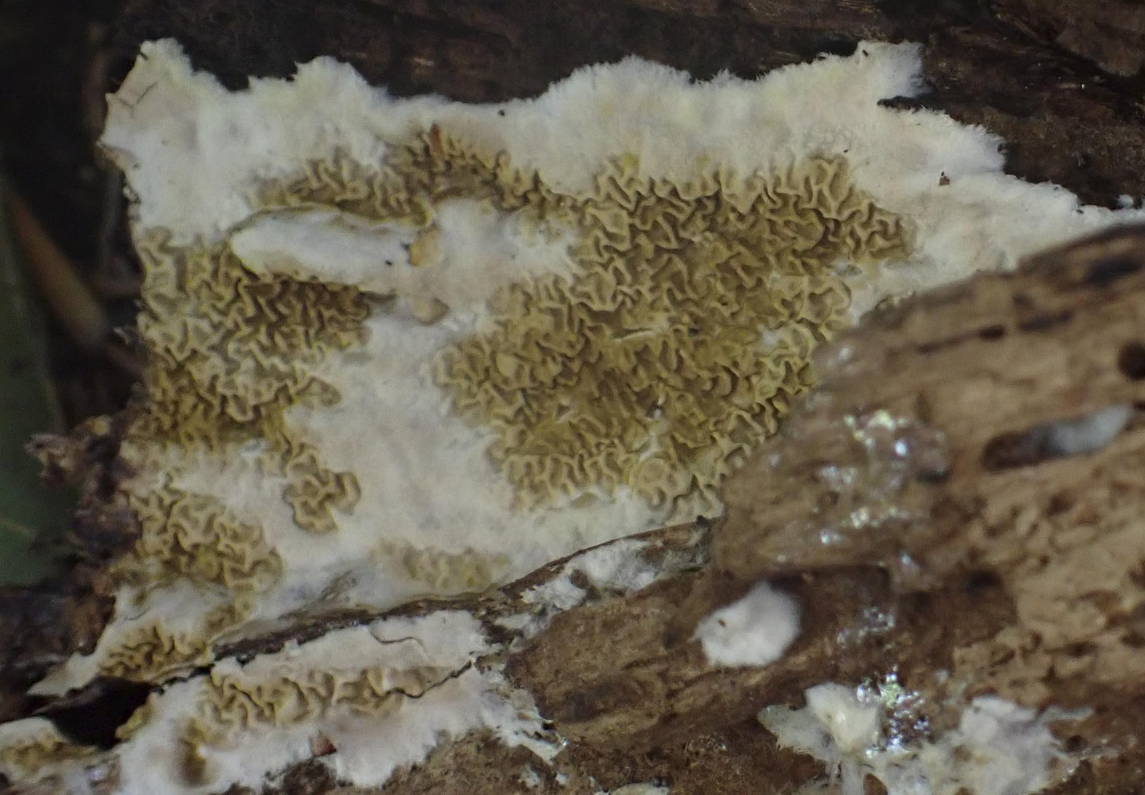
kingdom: Fungi
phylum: Basidiomycota
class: Agaricomycetes
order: Boletales
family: Serpulaceae
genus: Serpula
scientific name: Serpula himantioides
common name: tyndkødet hussvamp
